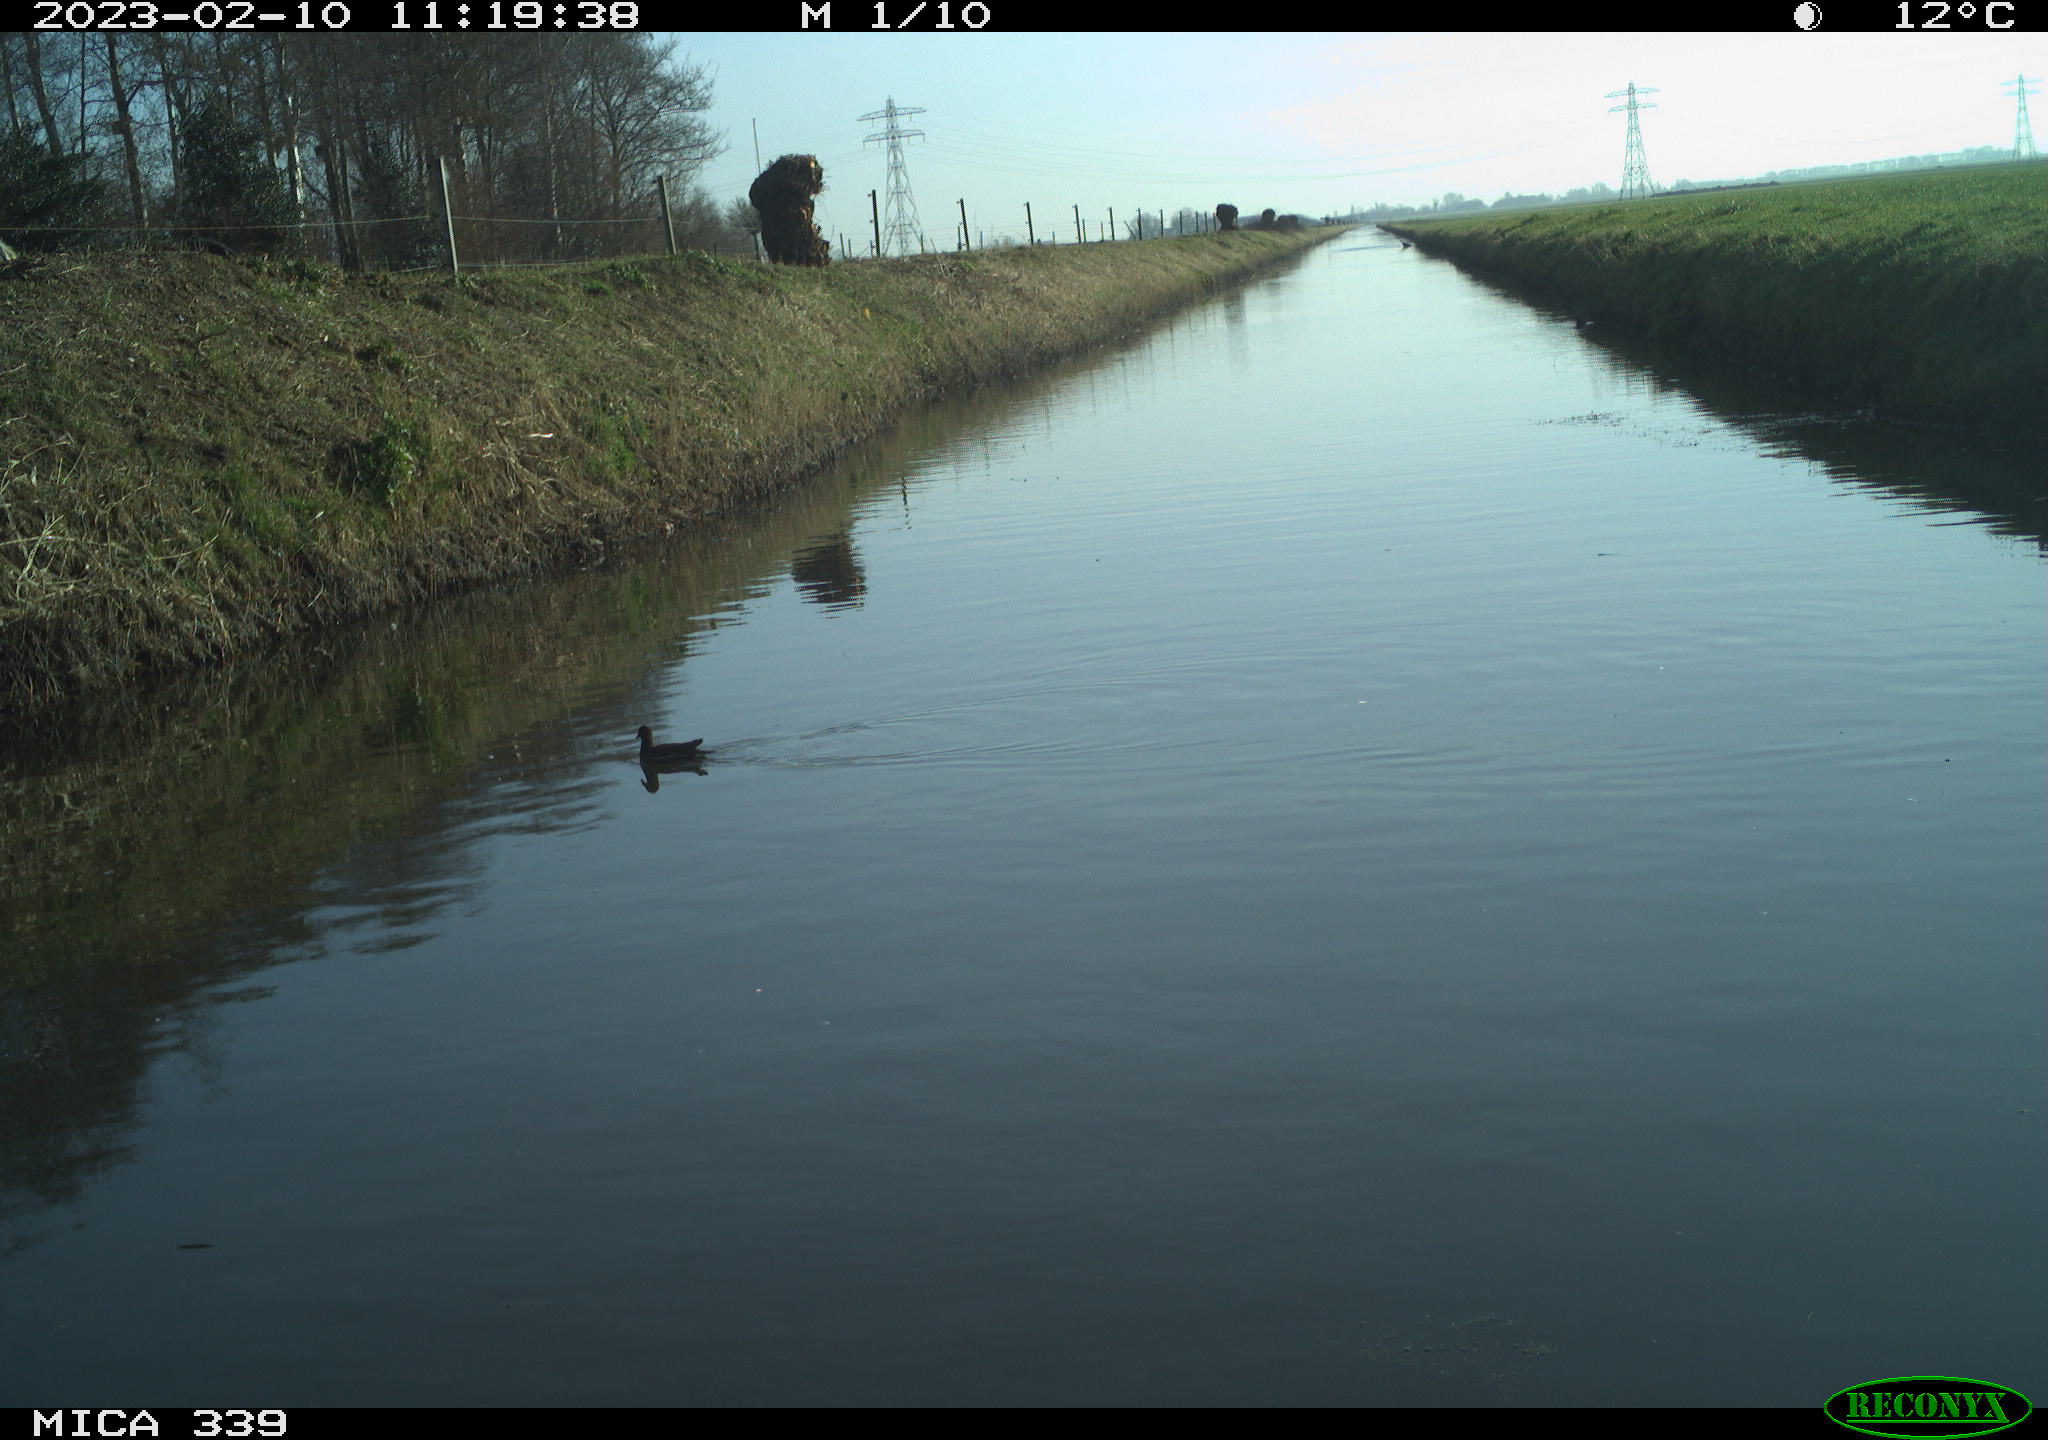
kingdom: Animalia
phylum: Chordata
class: Aves
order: Gruiformes
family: Rallidae
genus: Gallinula
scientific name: Gallinula chloropus
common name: Common moorhen
